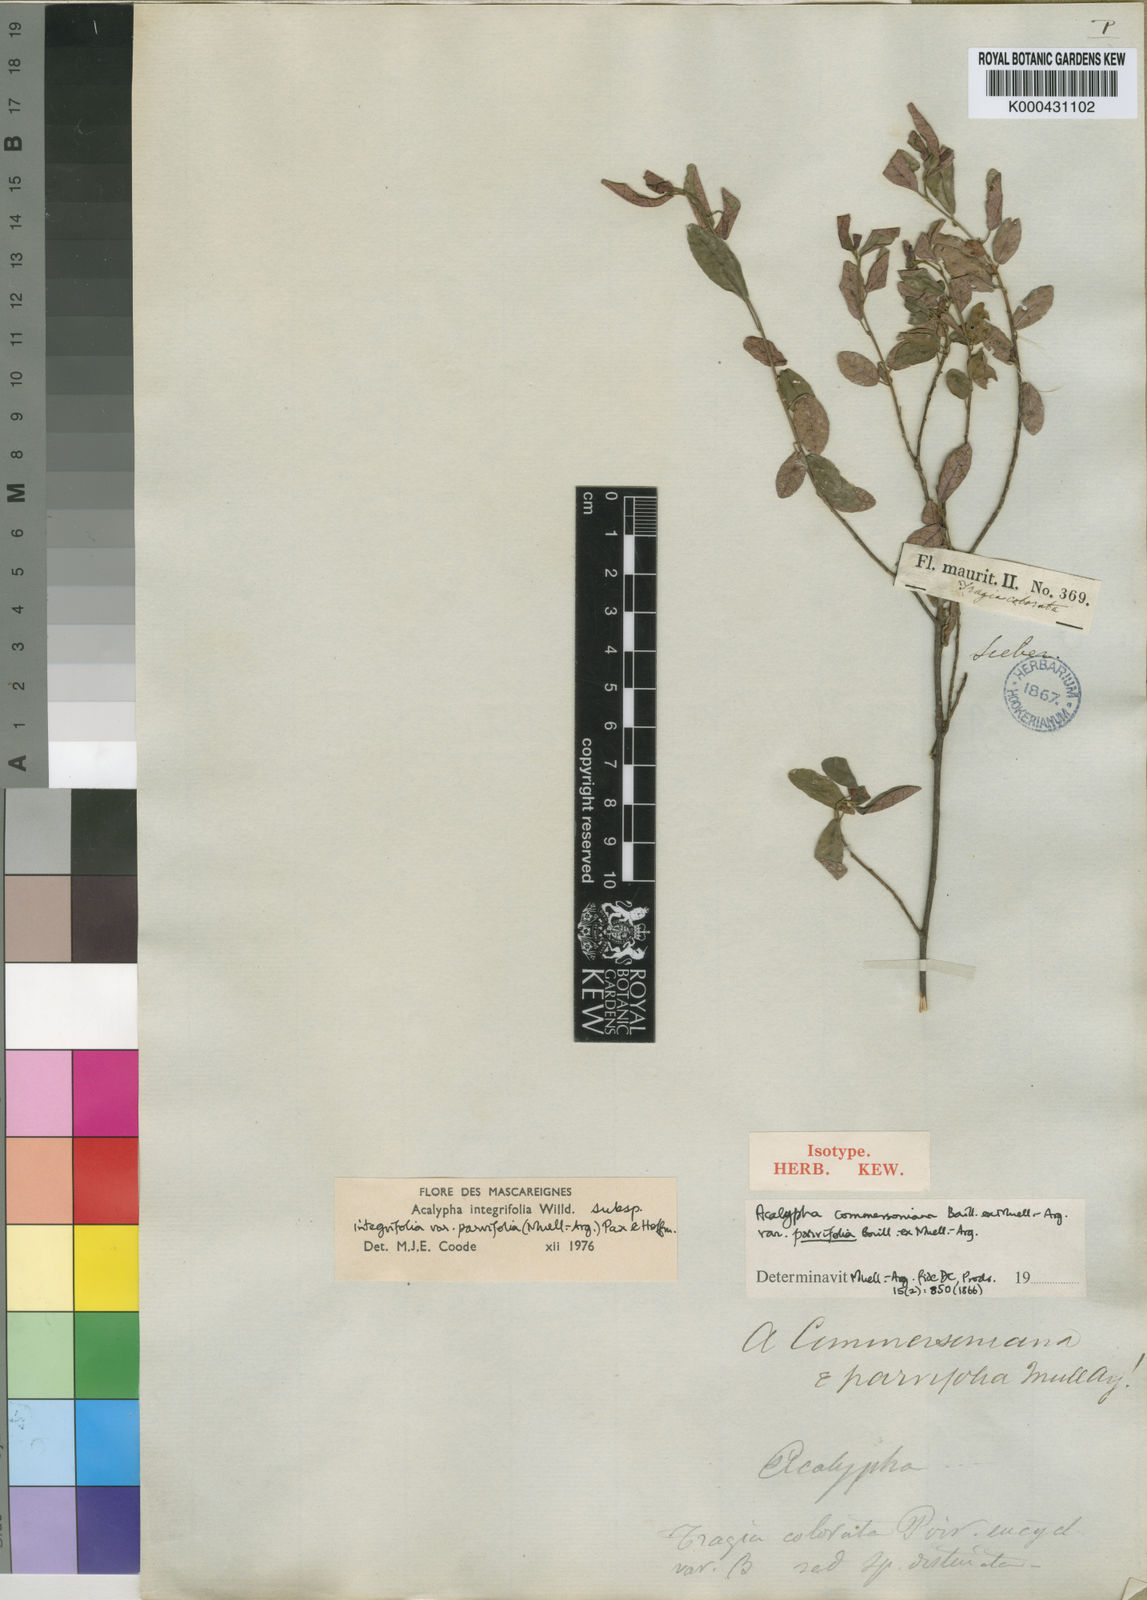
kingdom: Plantae
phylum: Tracheophyta
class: Magnoliopsida
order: Malpighiales
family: Euphorbiaceae
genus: Acalypha
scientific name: Acalypha integrifolia
